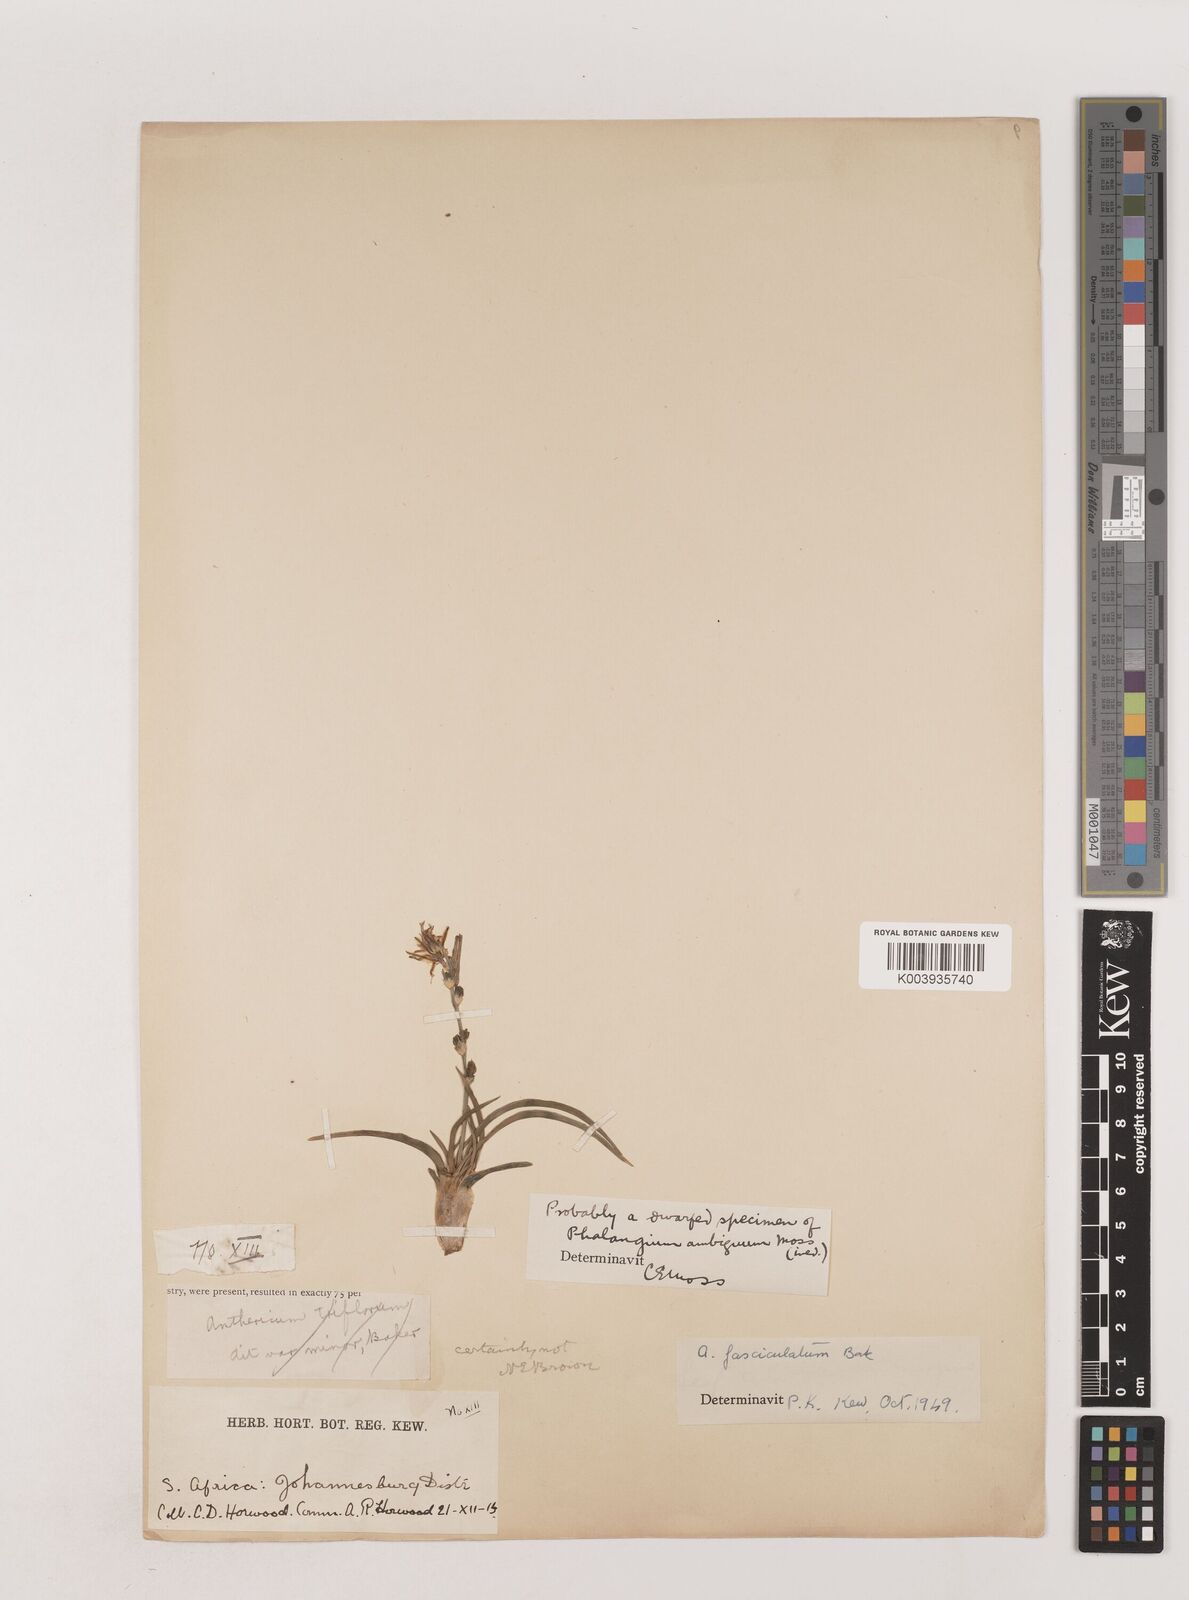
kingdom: Plantae
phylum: Tracheophyta
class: Liliopsida
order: Asparagales
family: Asparagaceae
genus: Chlorophytum
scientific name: Chlorophytum fasciculatum
